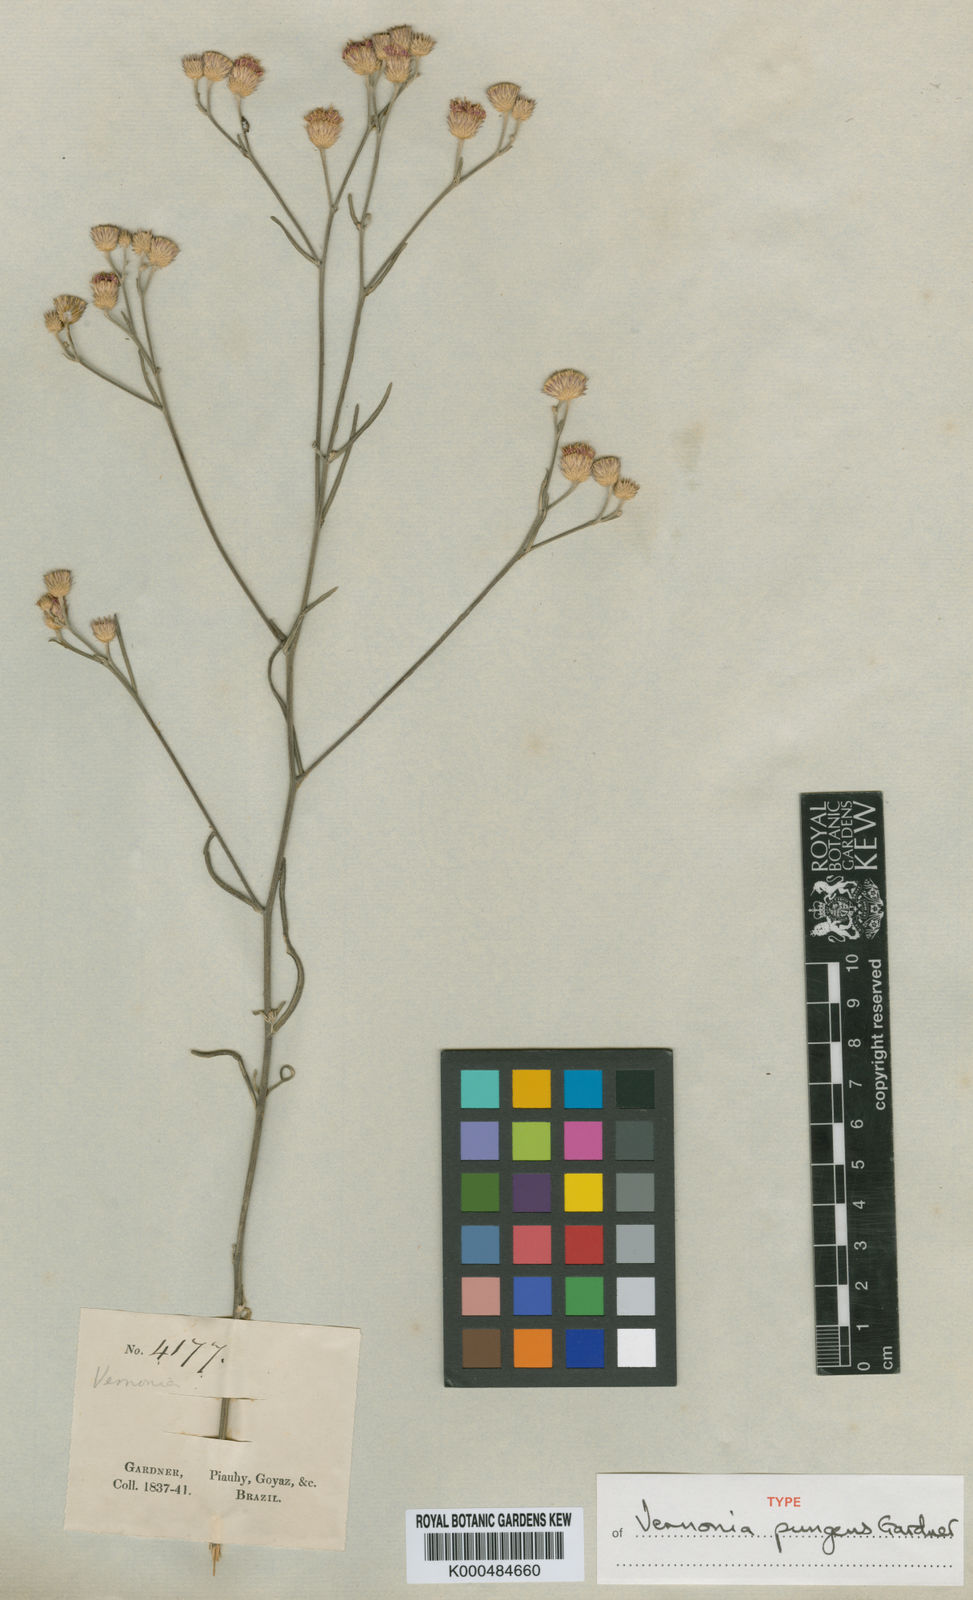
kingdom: Plantae
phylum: Tracheophyta
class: Magnoliopsida
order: Asterales
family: Asteraceae
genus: Echinocoryne
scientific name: Echinocoryne stricta
